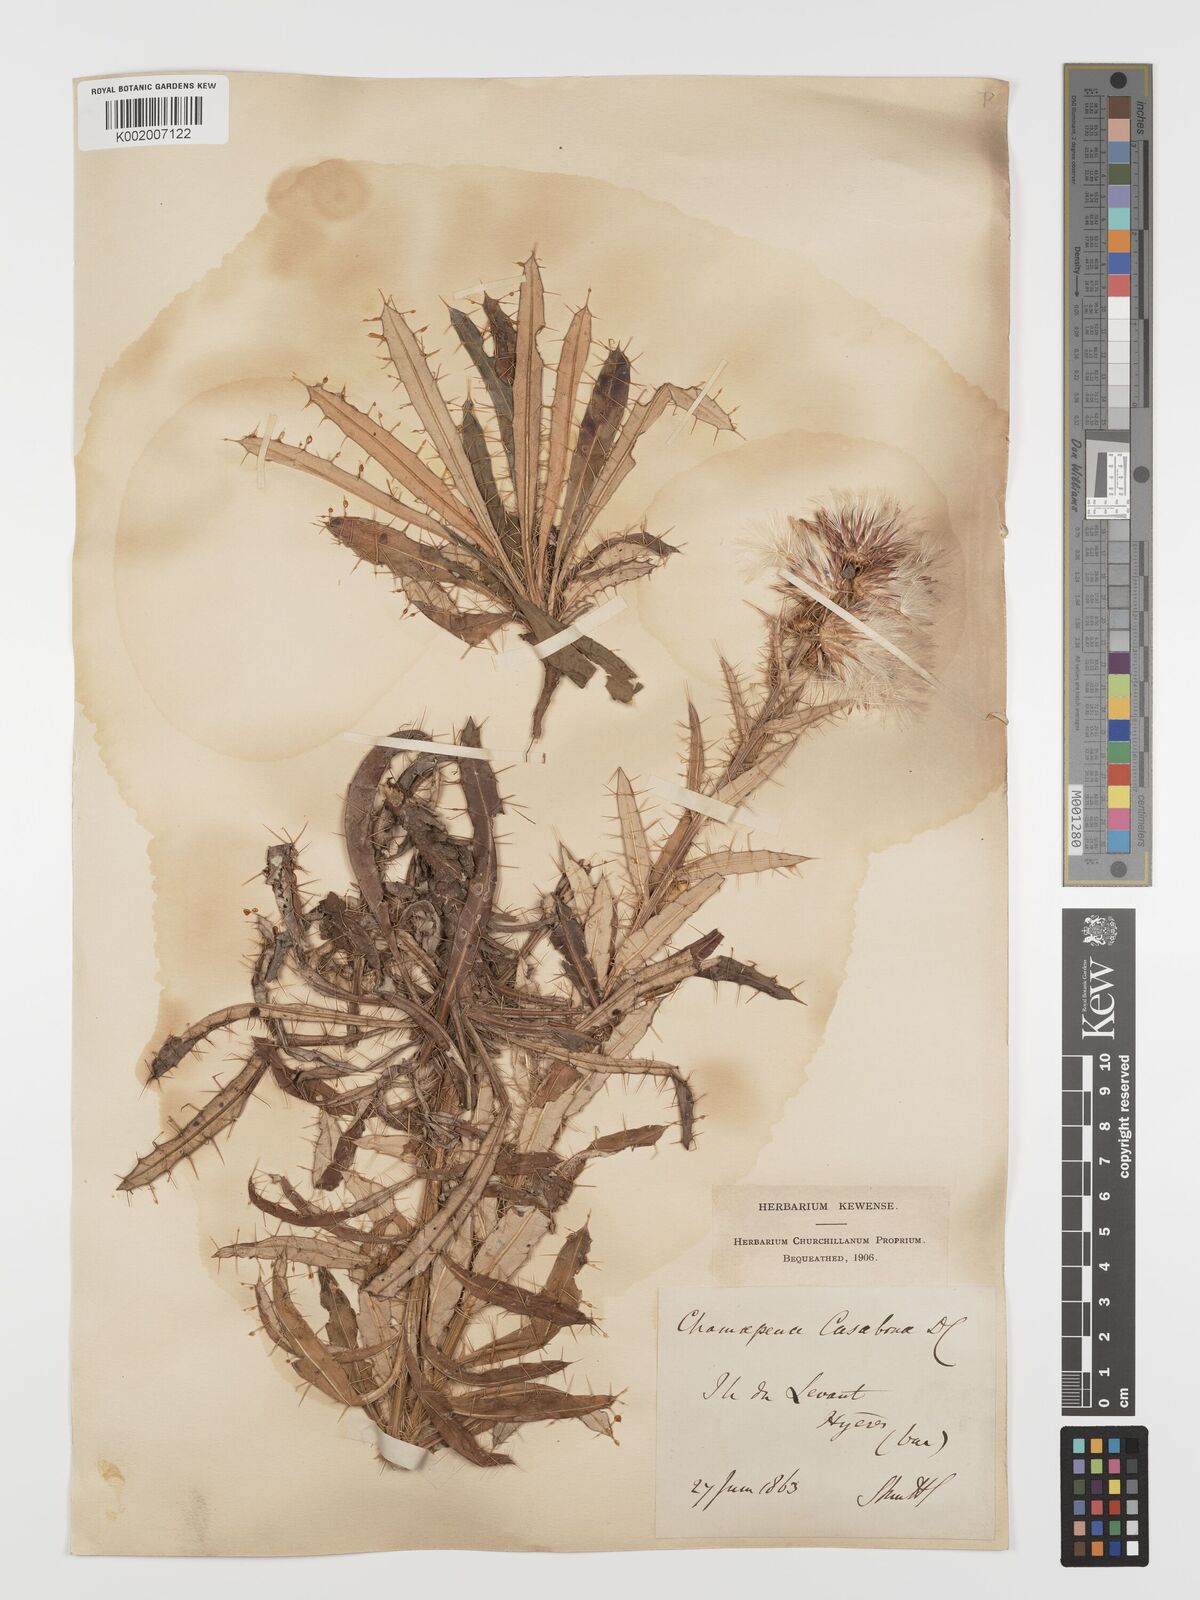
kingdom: Plantae
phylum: Tracheophyta
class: Magnoliopsida
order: Asterales
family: Asteraceae
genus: Ptilostemon
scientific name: Ptilostemon casabonae
